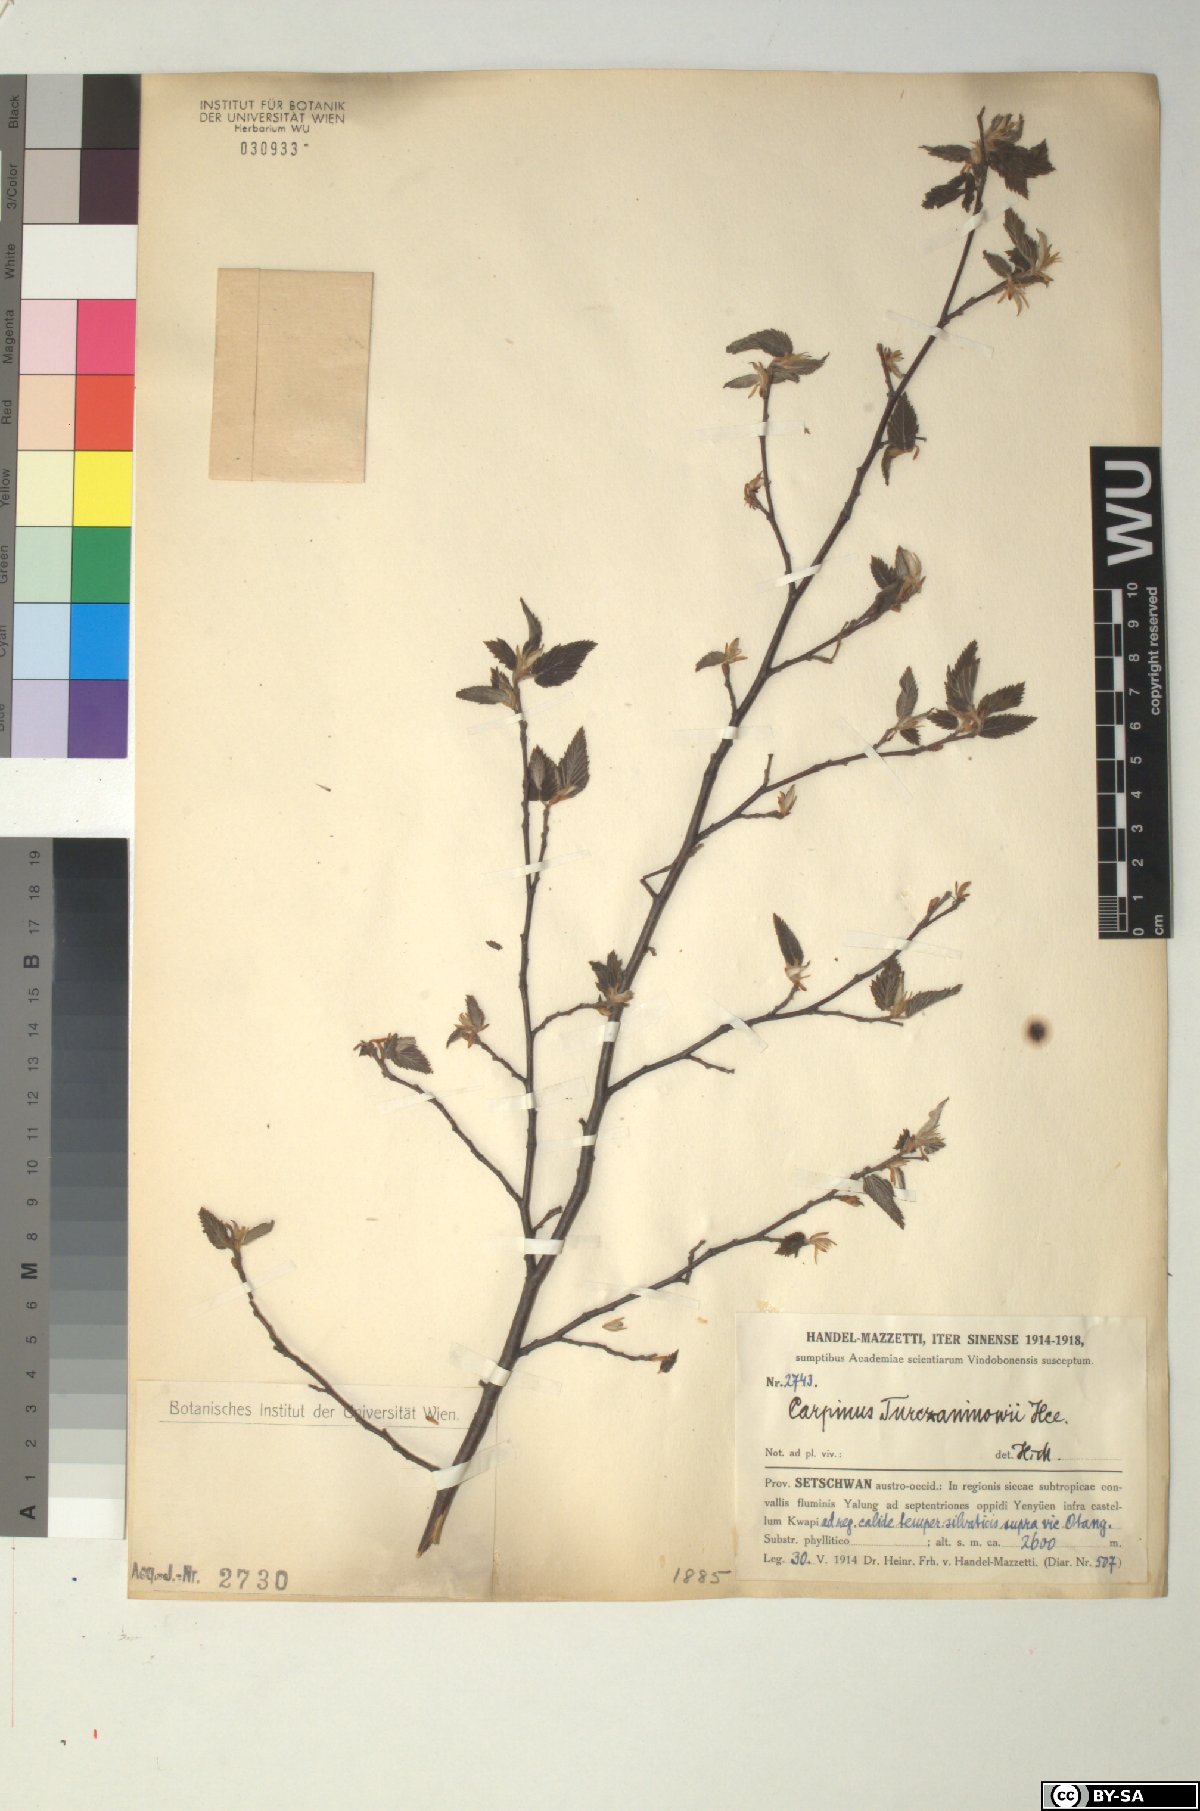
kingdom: Plantae
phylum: Tracheophyta
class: Magnoliopsida
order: Fagales
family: Betulaceae
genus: Carpinus
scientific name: Carpinus turczaninovii
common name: Korean hornbeam
